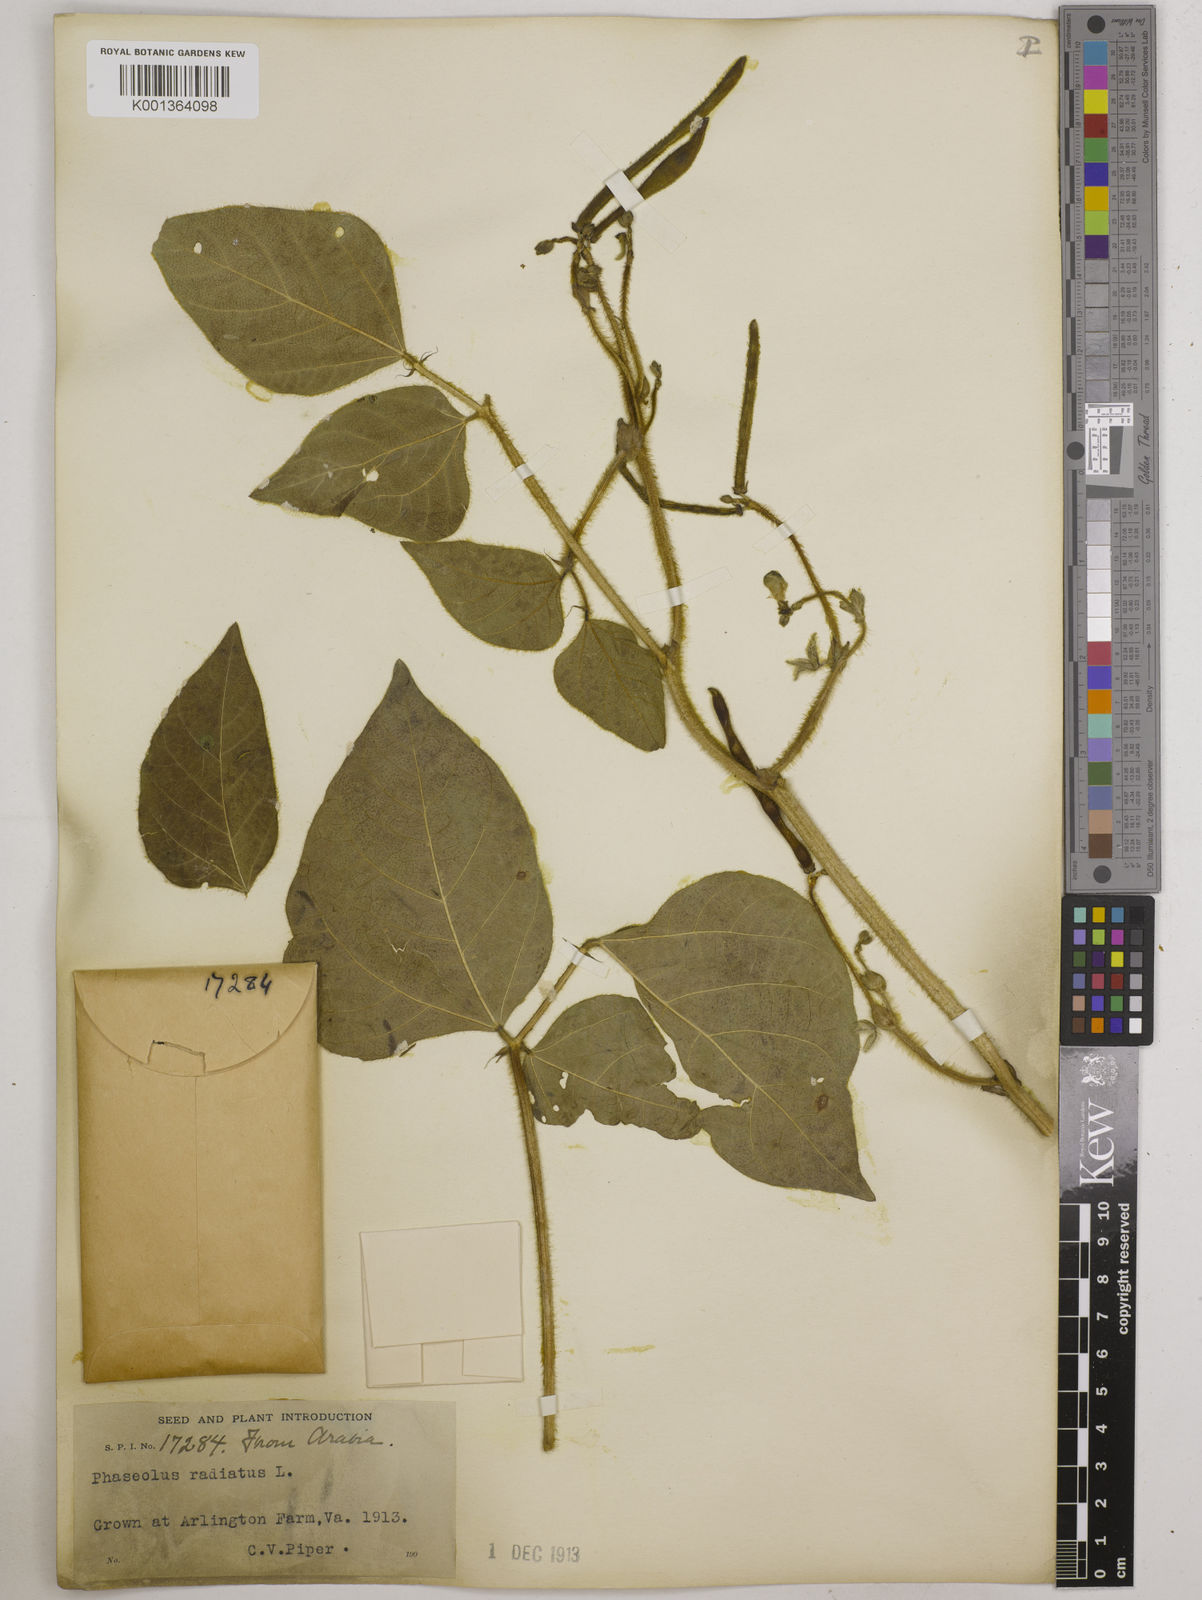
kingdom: Plantae
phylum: Tracheophyta
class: Magnoliopsida
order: Fabales
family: Fabaceae
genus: Vigna
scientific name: Vigna radiata
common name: Mung-bean
